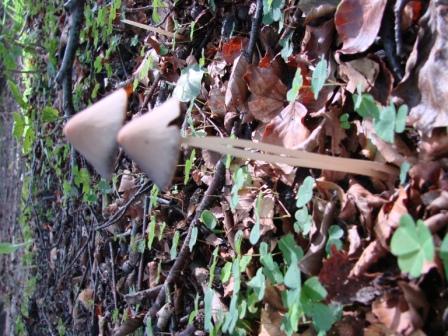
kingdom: Fungi
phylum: Basidiomycota
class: Agaricomycetes
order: Agaricales
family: Psathyrellaceae
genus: Parasola
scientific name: Parasola conopilea
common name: kegle-hjulhat
